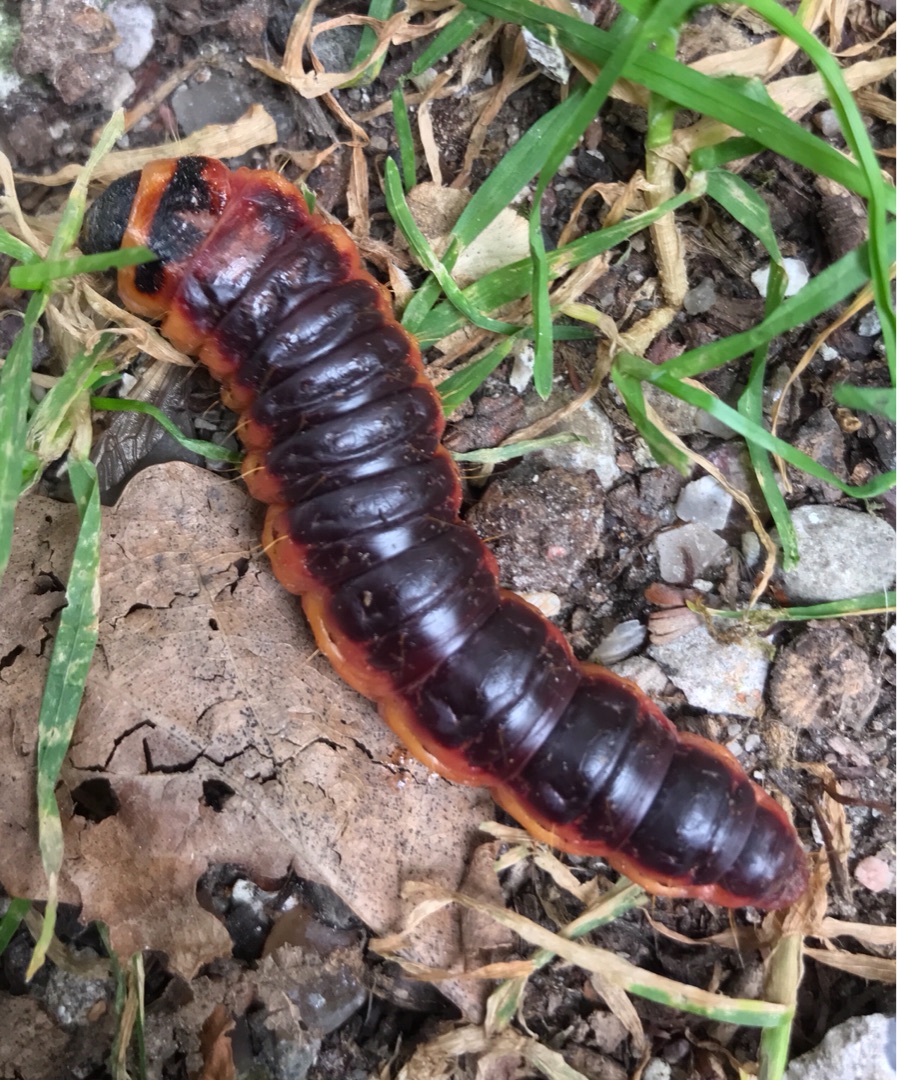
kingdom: Animalia
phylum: Arthropoda
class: Insecta
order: Lepidoptera
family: Cossidae
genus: Cossus
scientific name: Cossus cossus
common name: Pileborer
